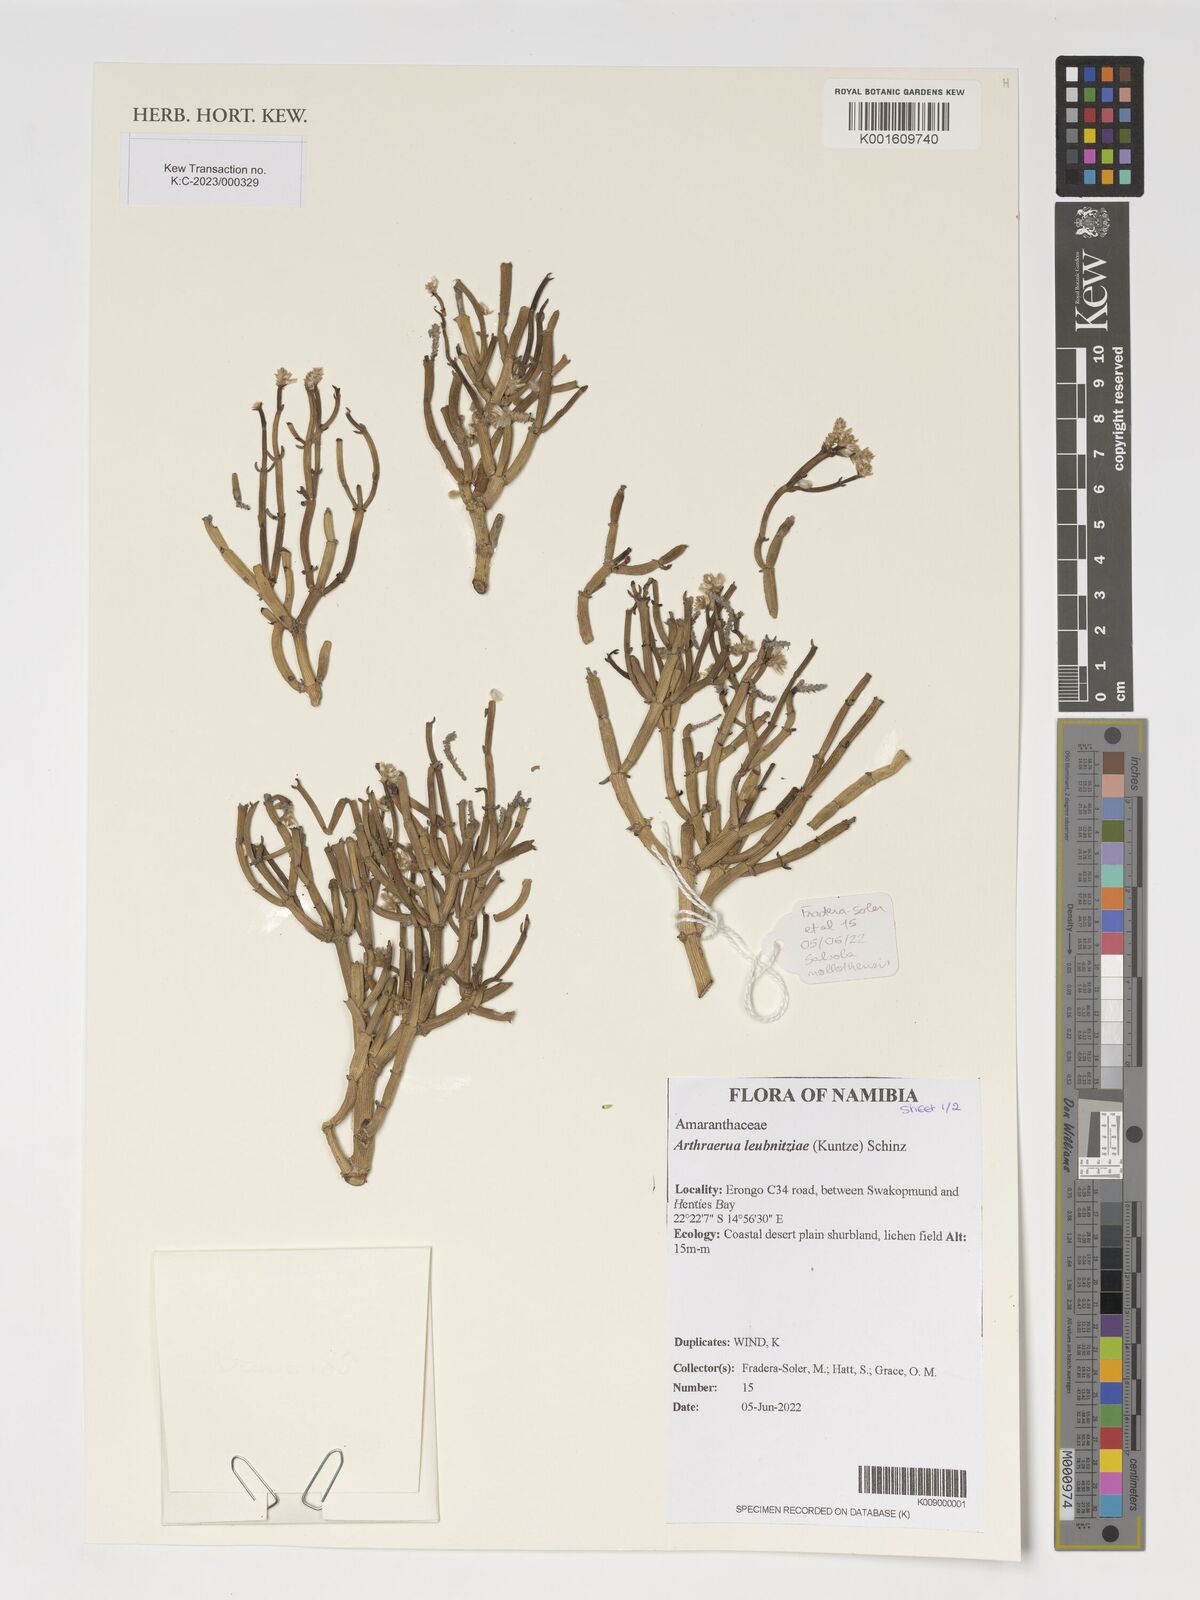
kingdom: Plantae
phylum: Tracheophyta
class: Magnoliopsida
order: Caryophyllales
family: Amaranthaceae
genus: Arthraerva
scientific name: Arthraerva leubnitziae
